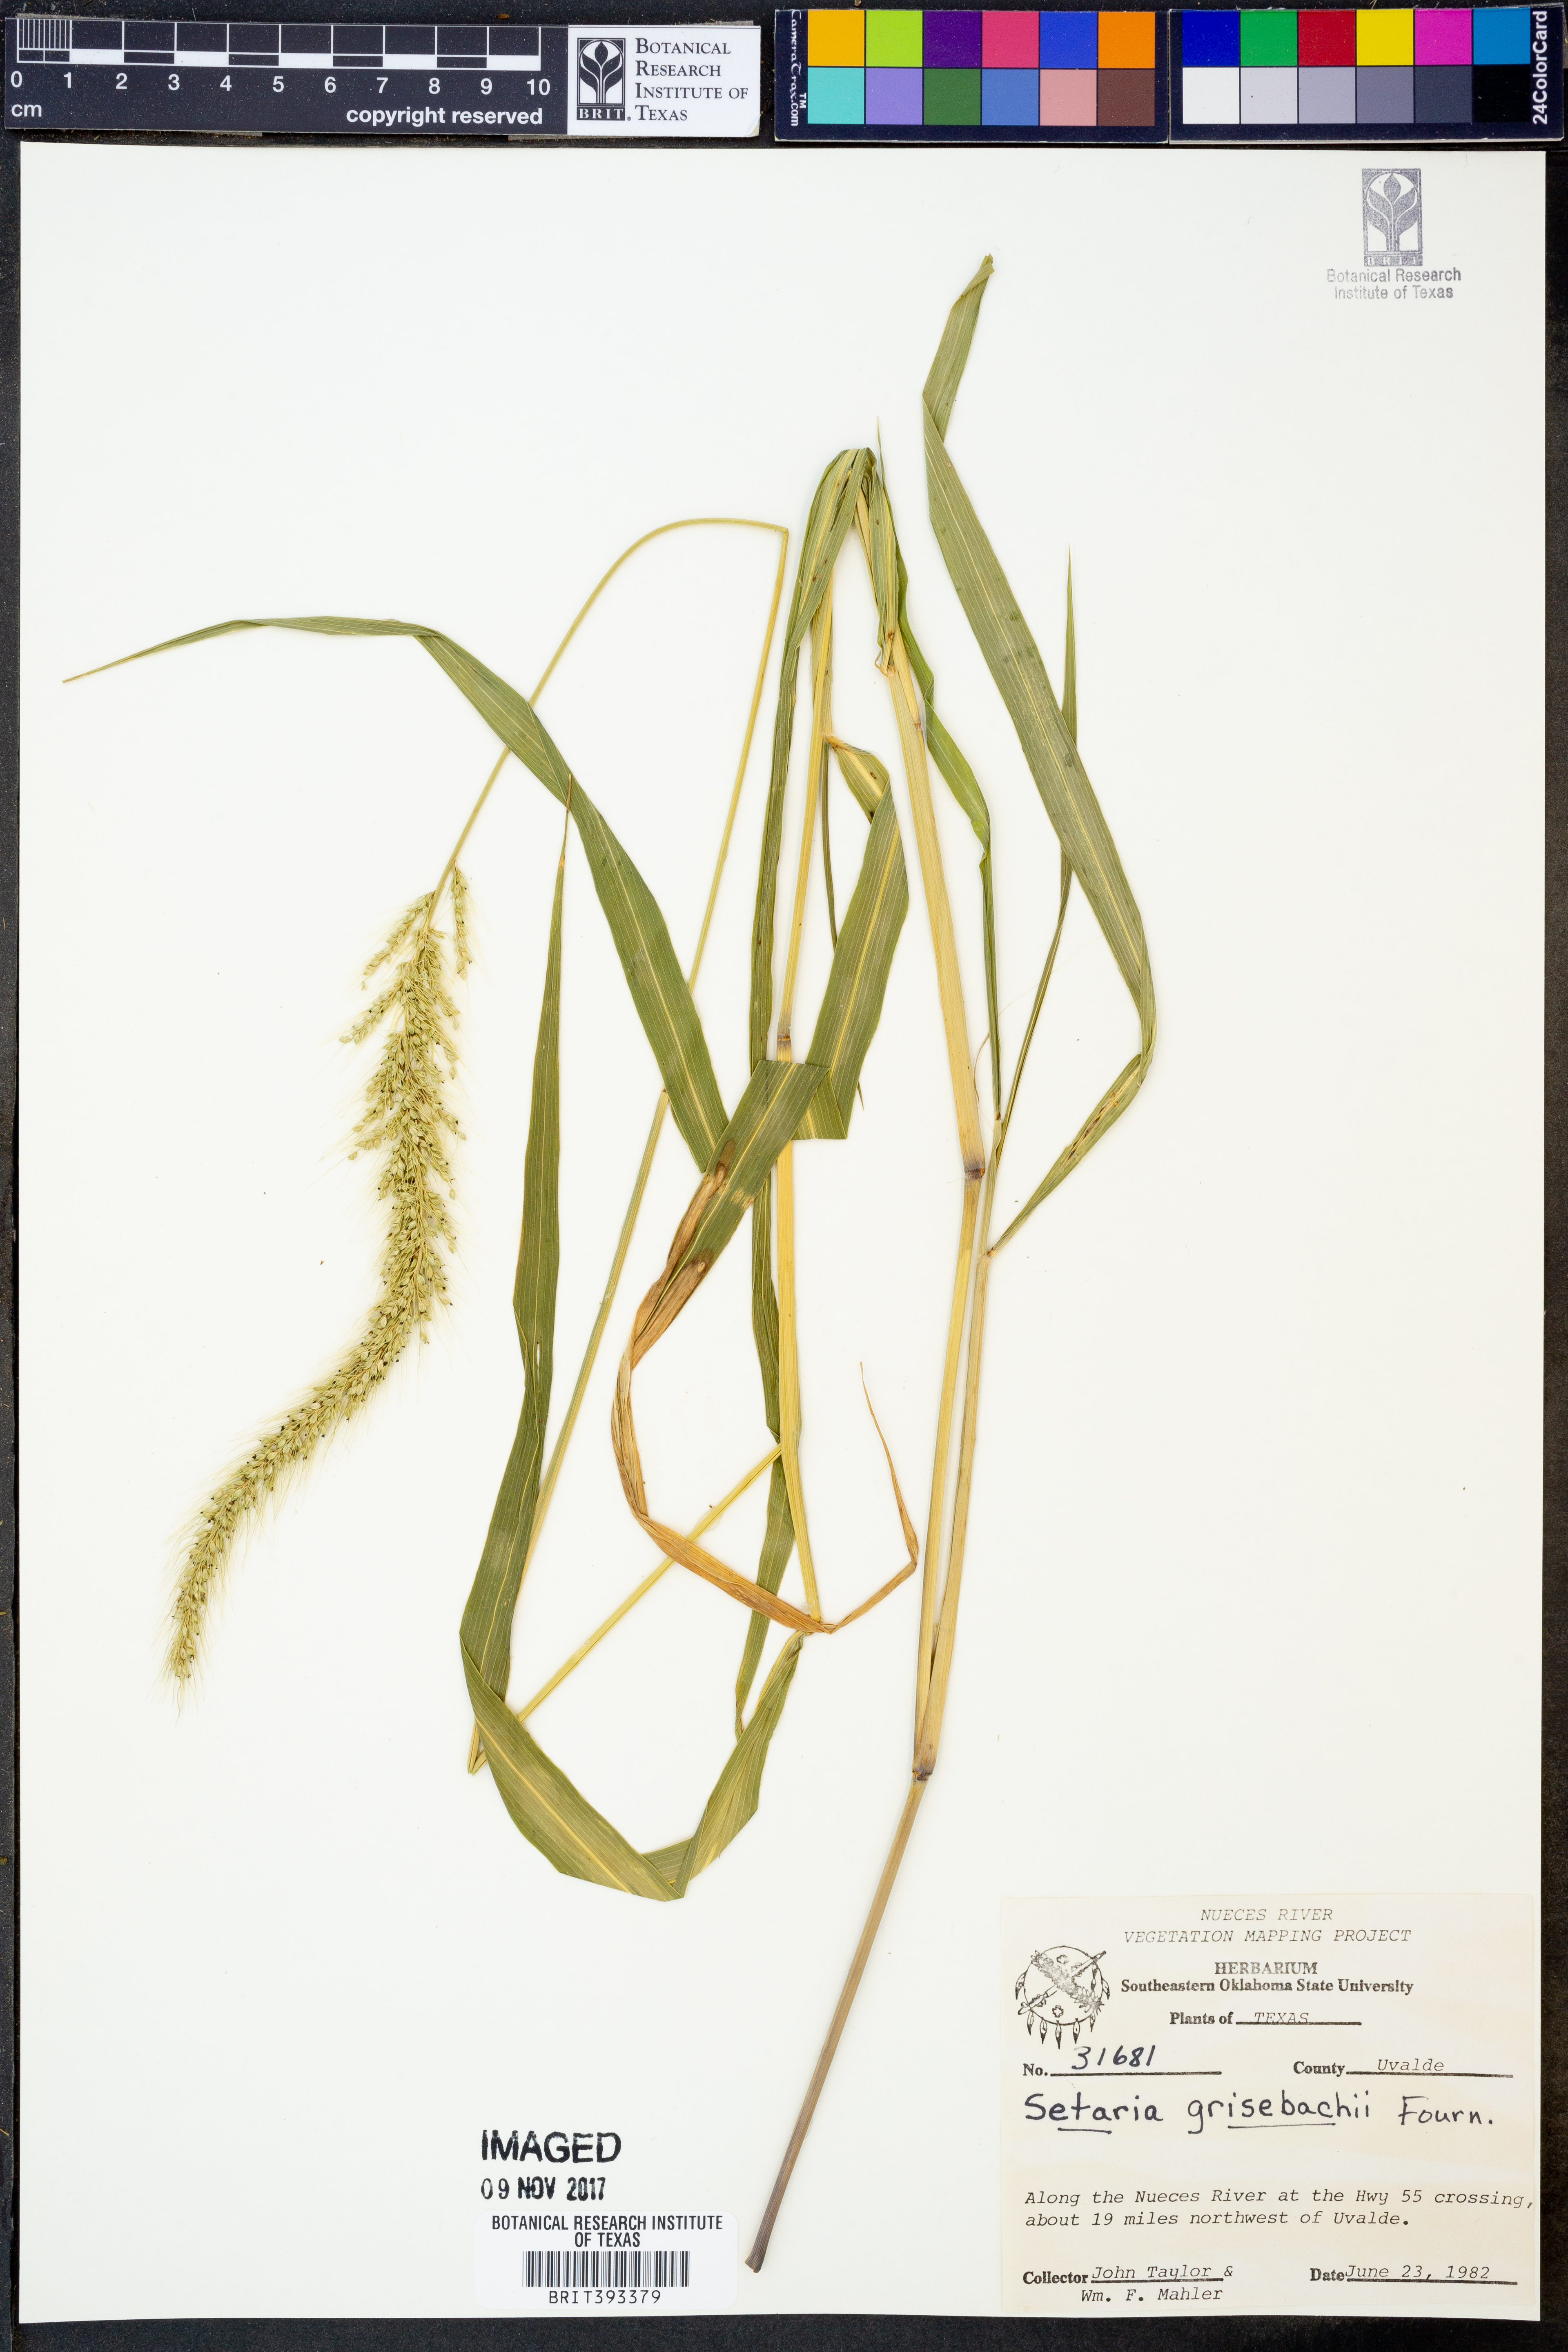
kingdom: Plantae
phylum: Tracheophyta
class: Liliopsida
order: Poales
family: Poaceae
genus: Setaria
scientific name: Setaria grisebachii
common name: Grisebach's bristle grass
